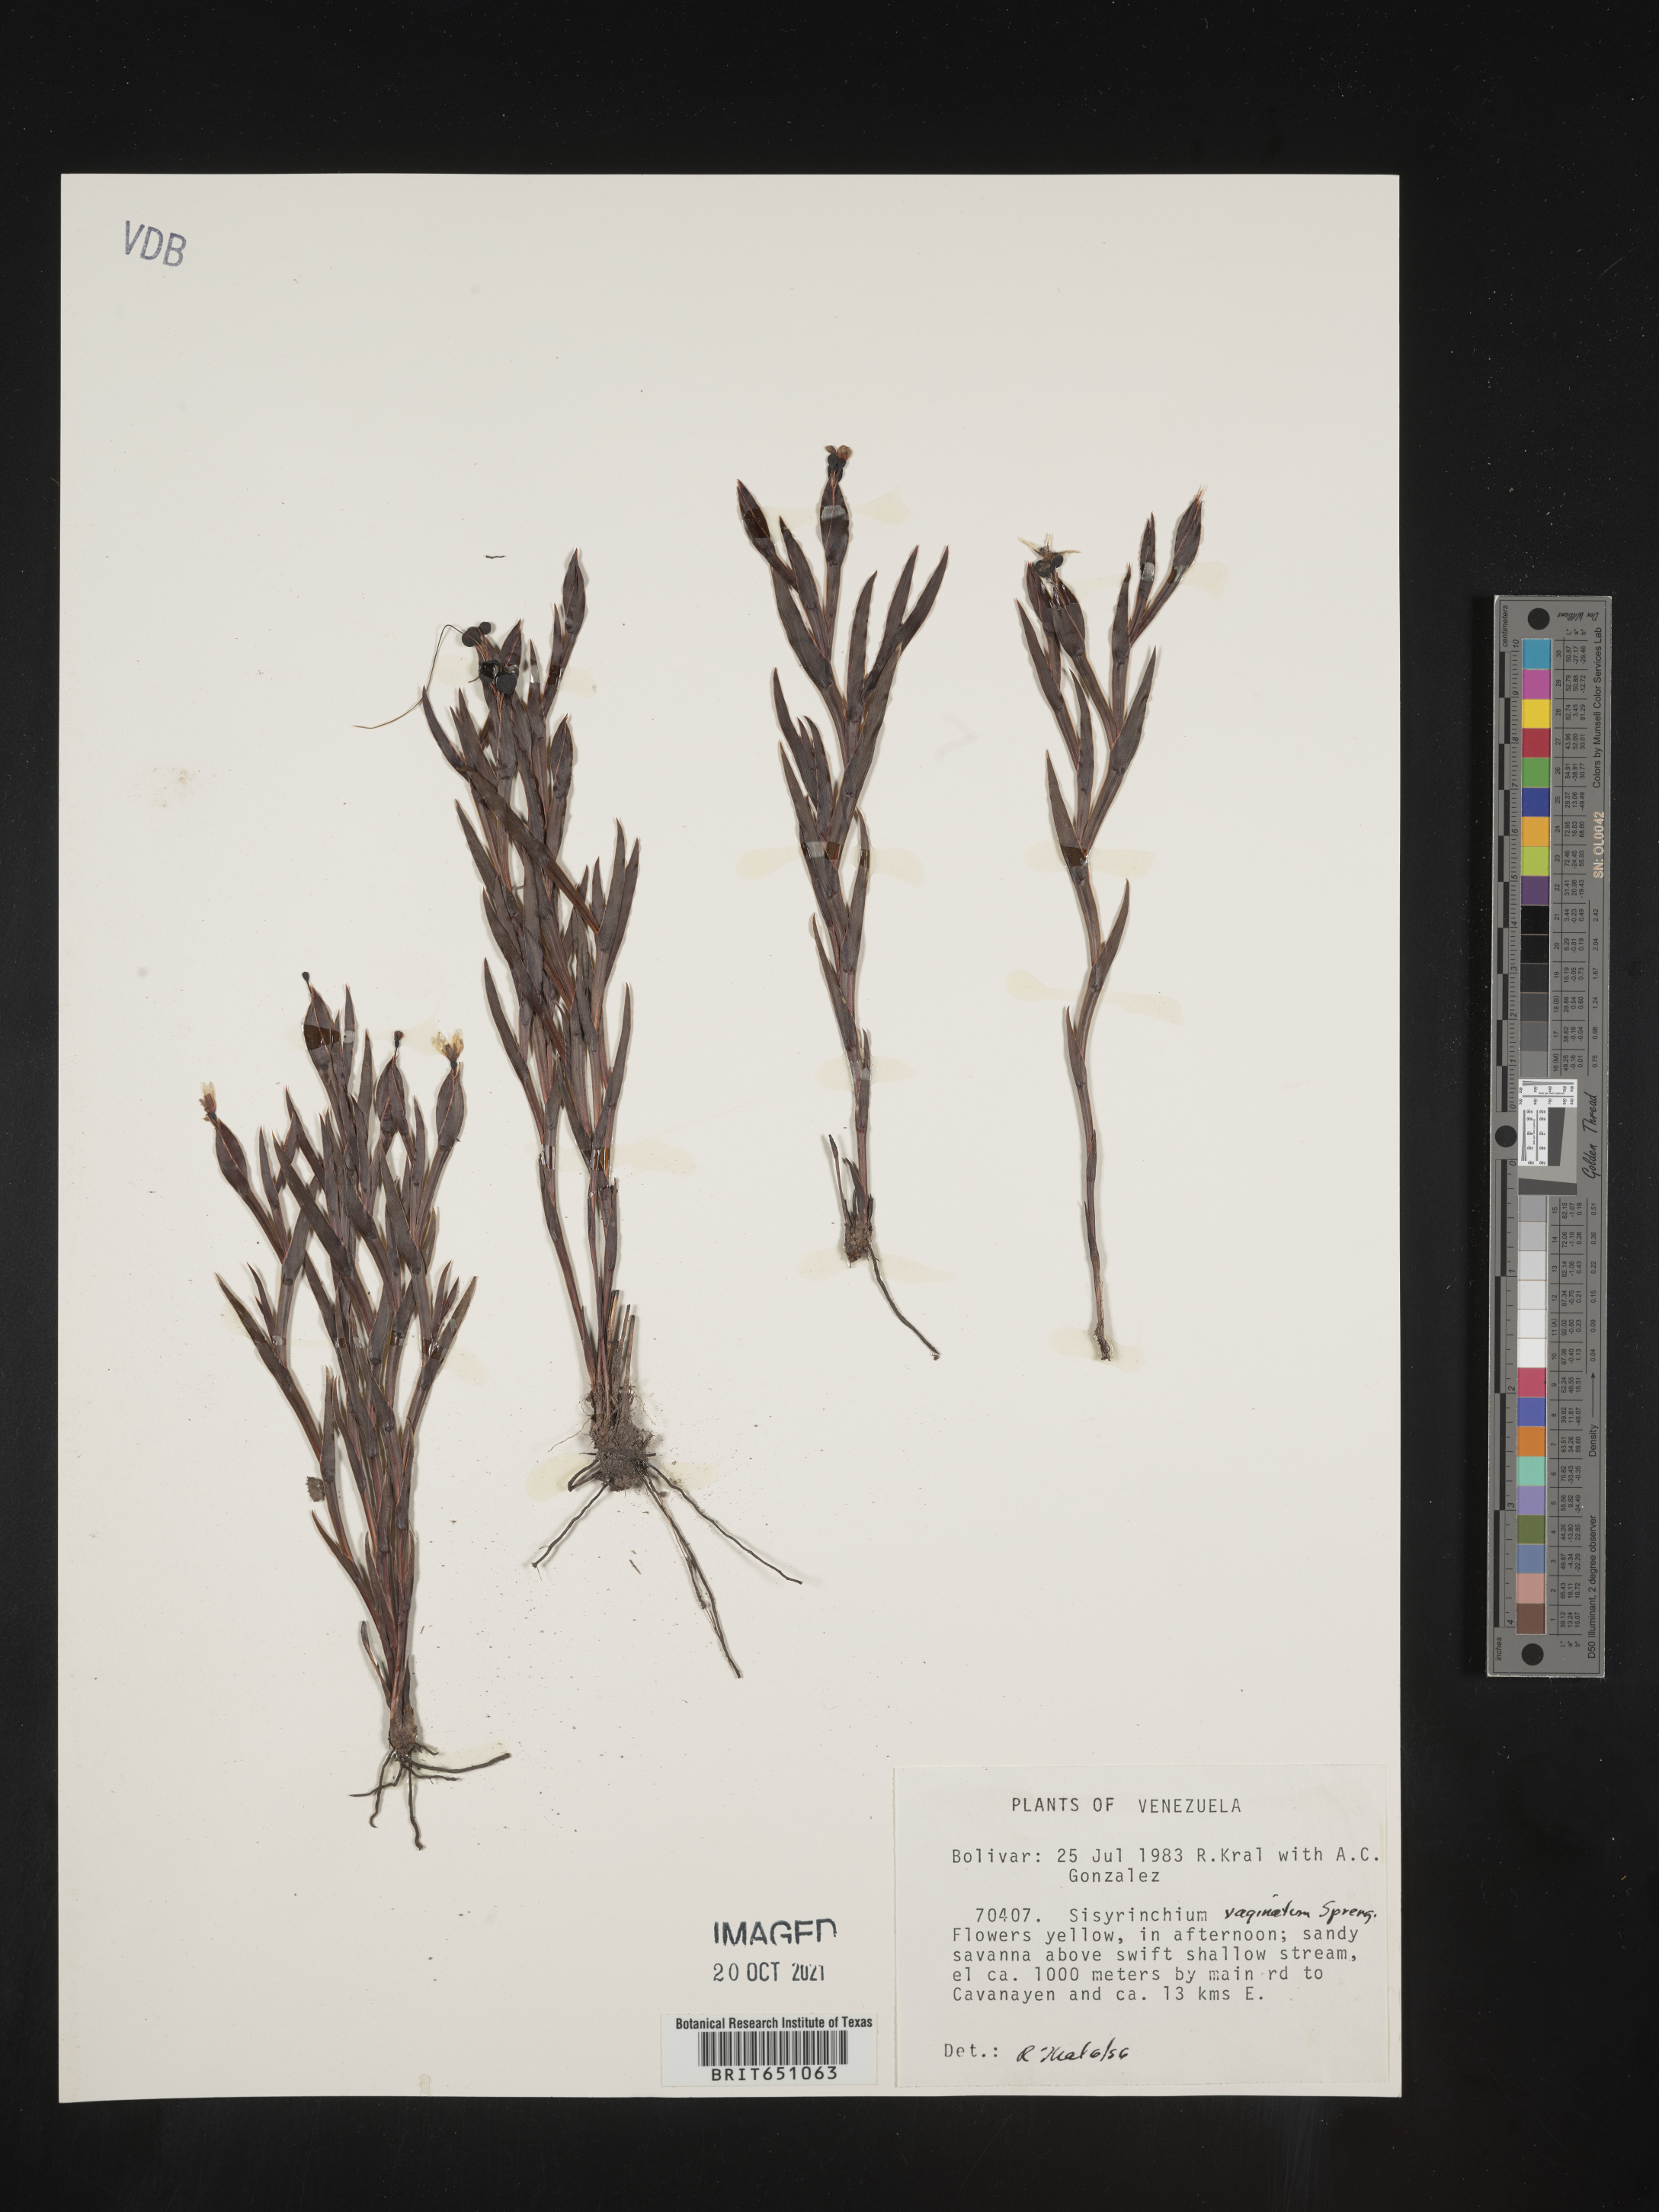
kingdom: Plantae
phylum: Tracheophyta
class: Liliopsida
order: Asparagales
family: Iridaceae
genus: Sisyrinchium
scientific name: Sisyrinchium
